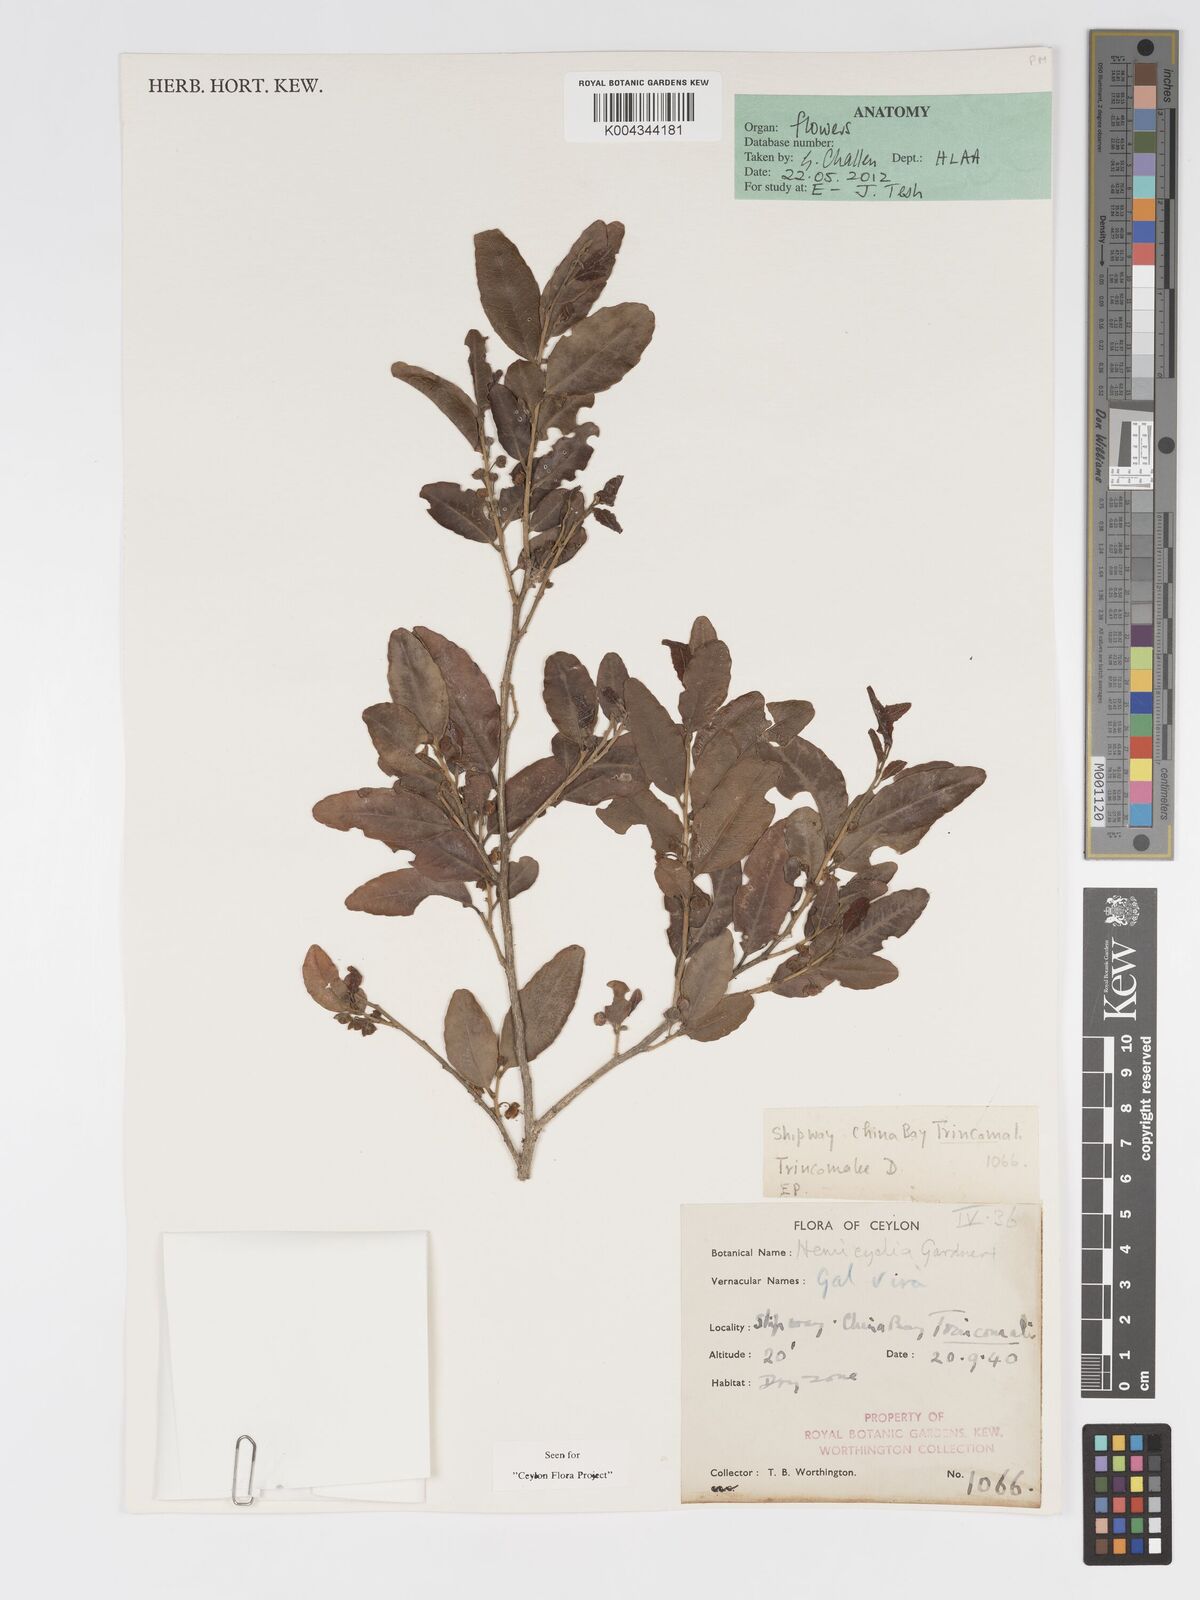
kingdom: Plantae
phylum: Tracheophyta
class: Magnoliopsida
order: Malpighiales
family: Putranjivaceae
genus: Drypetes
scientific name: Drypetes gardneri
